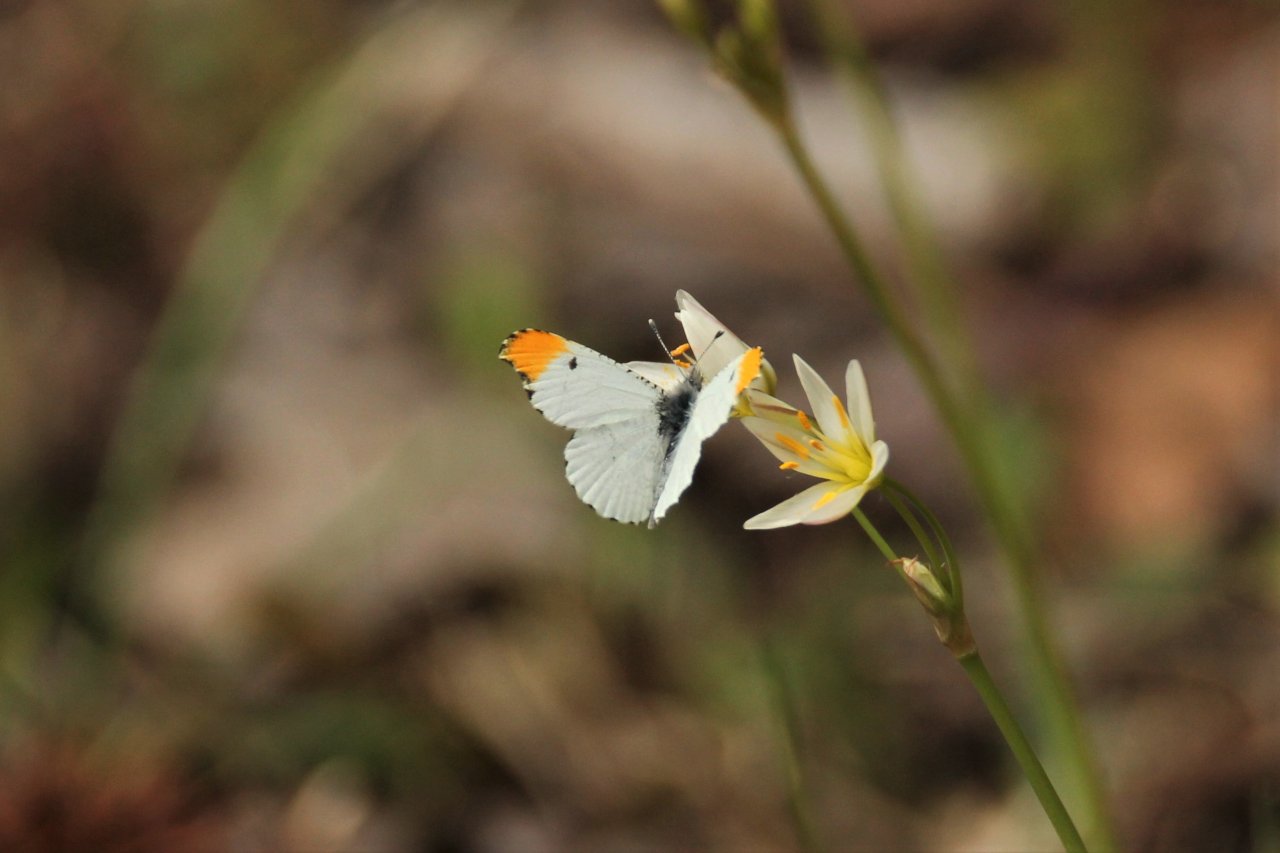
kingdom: Animalia
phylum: Arthropoda
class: Insecta
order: Lepidoptera
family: Pieridae
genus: Anthocharis
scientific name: Anthocharis midea
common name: Falcate Orangetip
